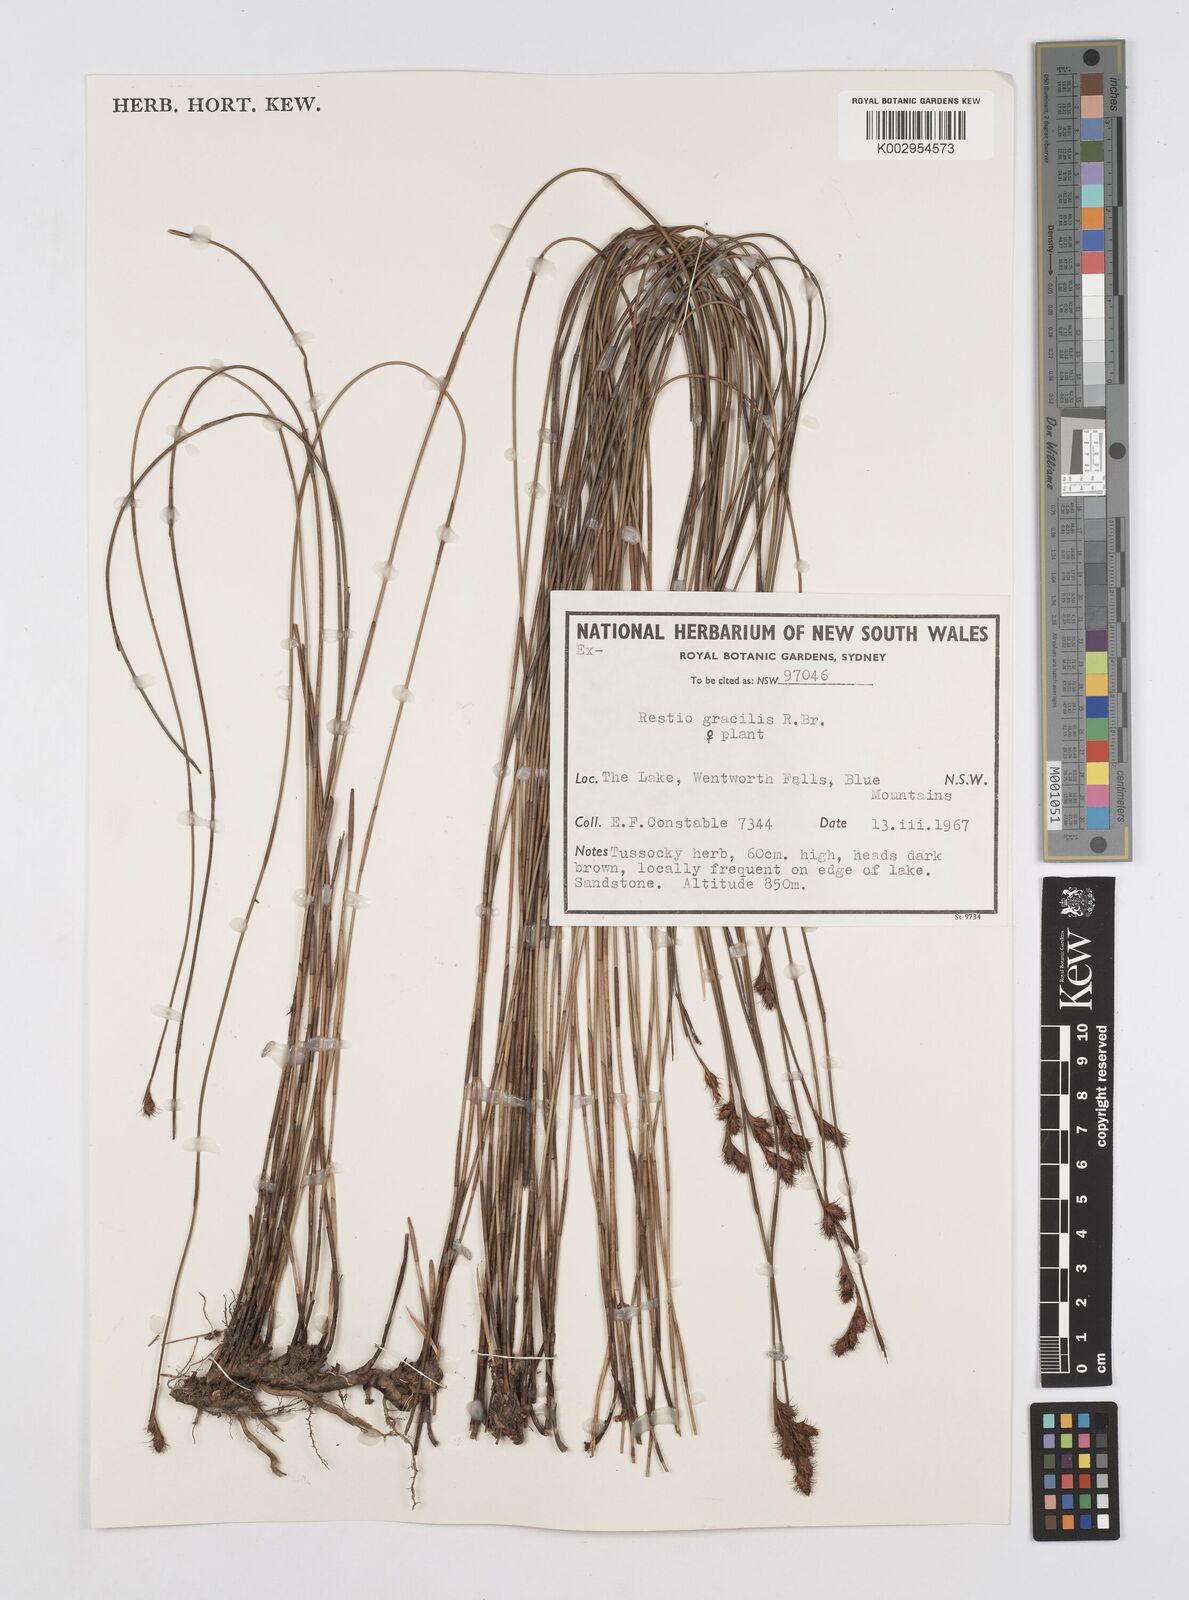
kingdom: Plantae
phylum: Tracheophyta
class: Liliopsida
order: Poales
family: Restionaceae
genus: Baloskion
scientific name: Baloskion gracile
